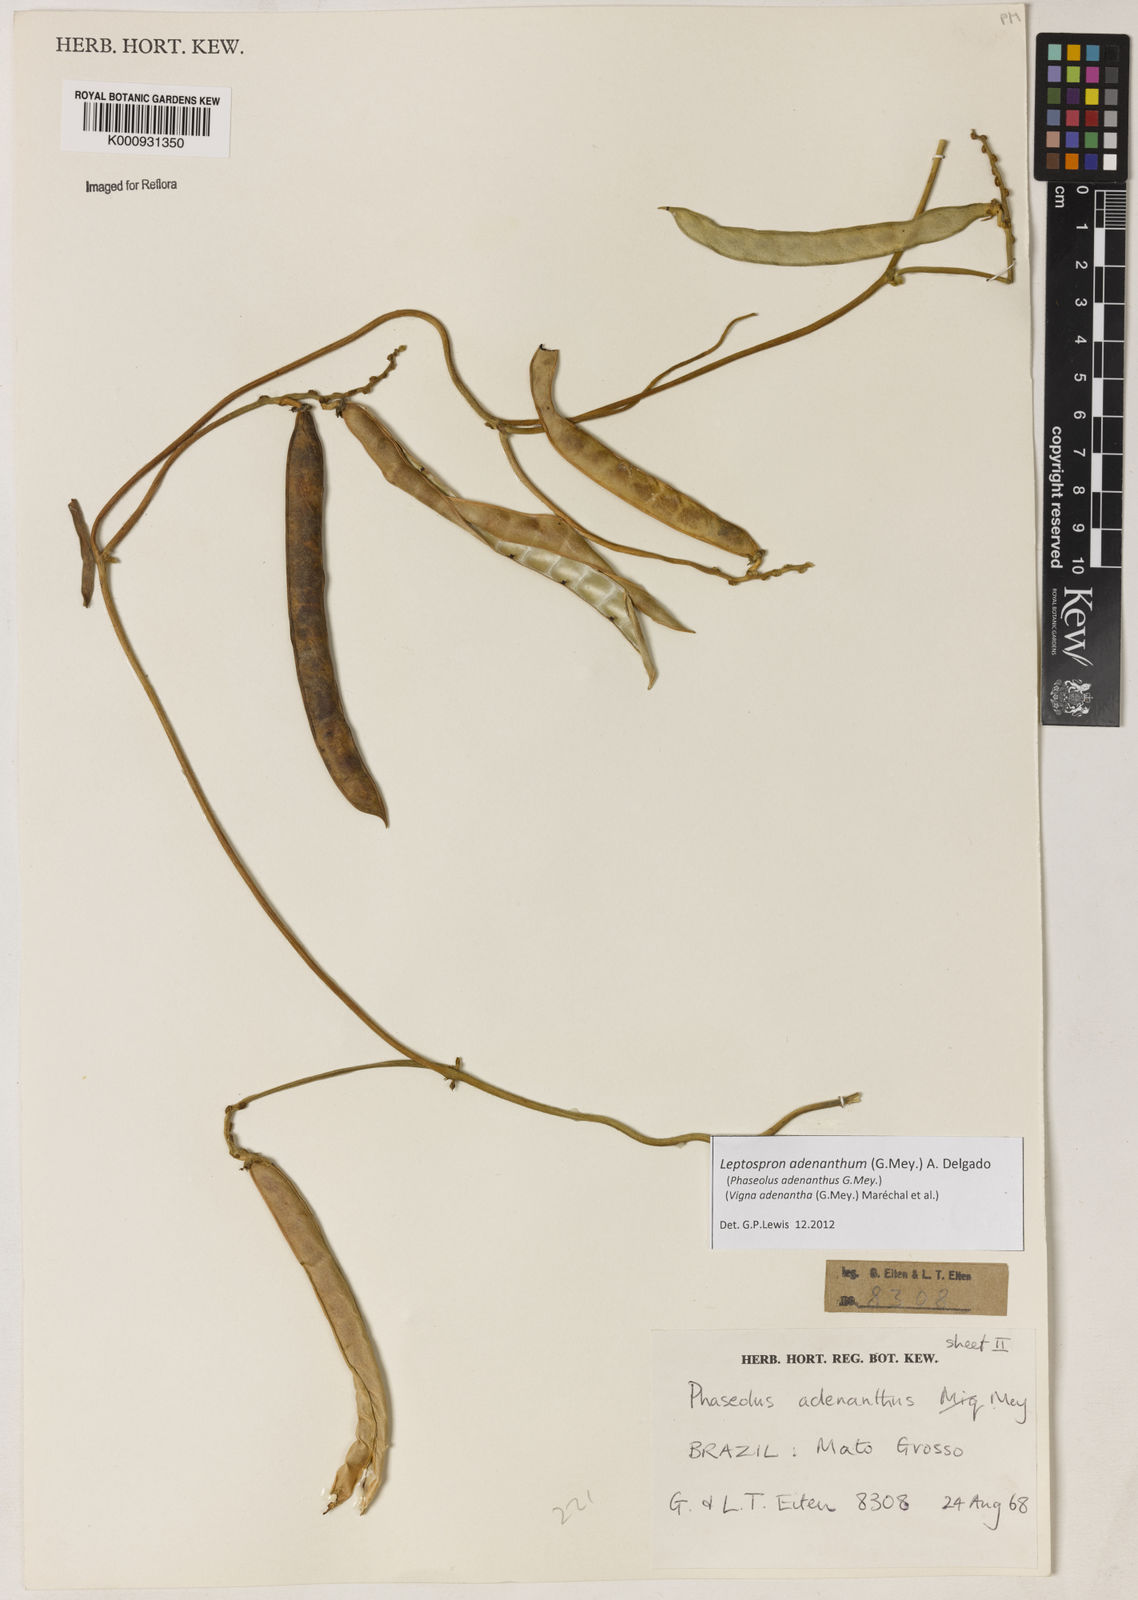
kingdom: Plantae
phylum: Tracheophyta
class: Magnoliopsida
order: Fabales
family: Fabaceae
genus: Leptospron
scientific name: Leptospron adenanthum
